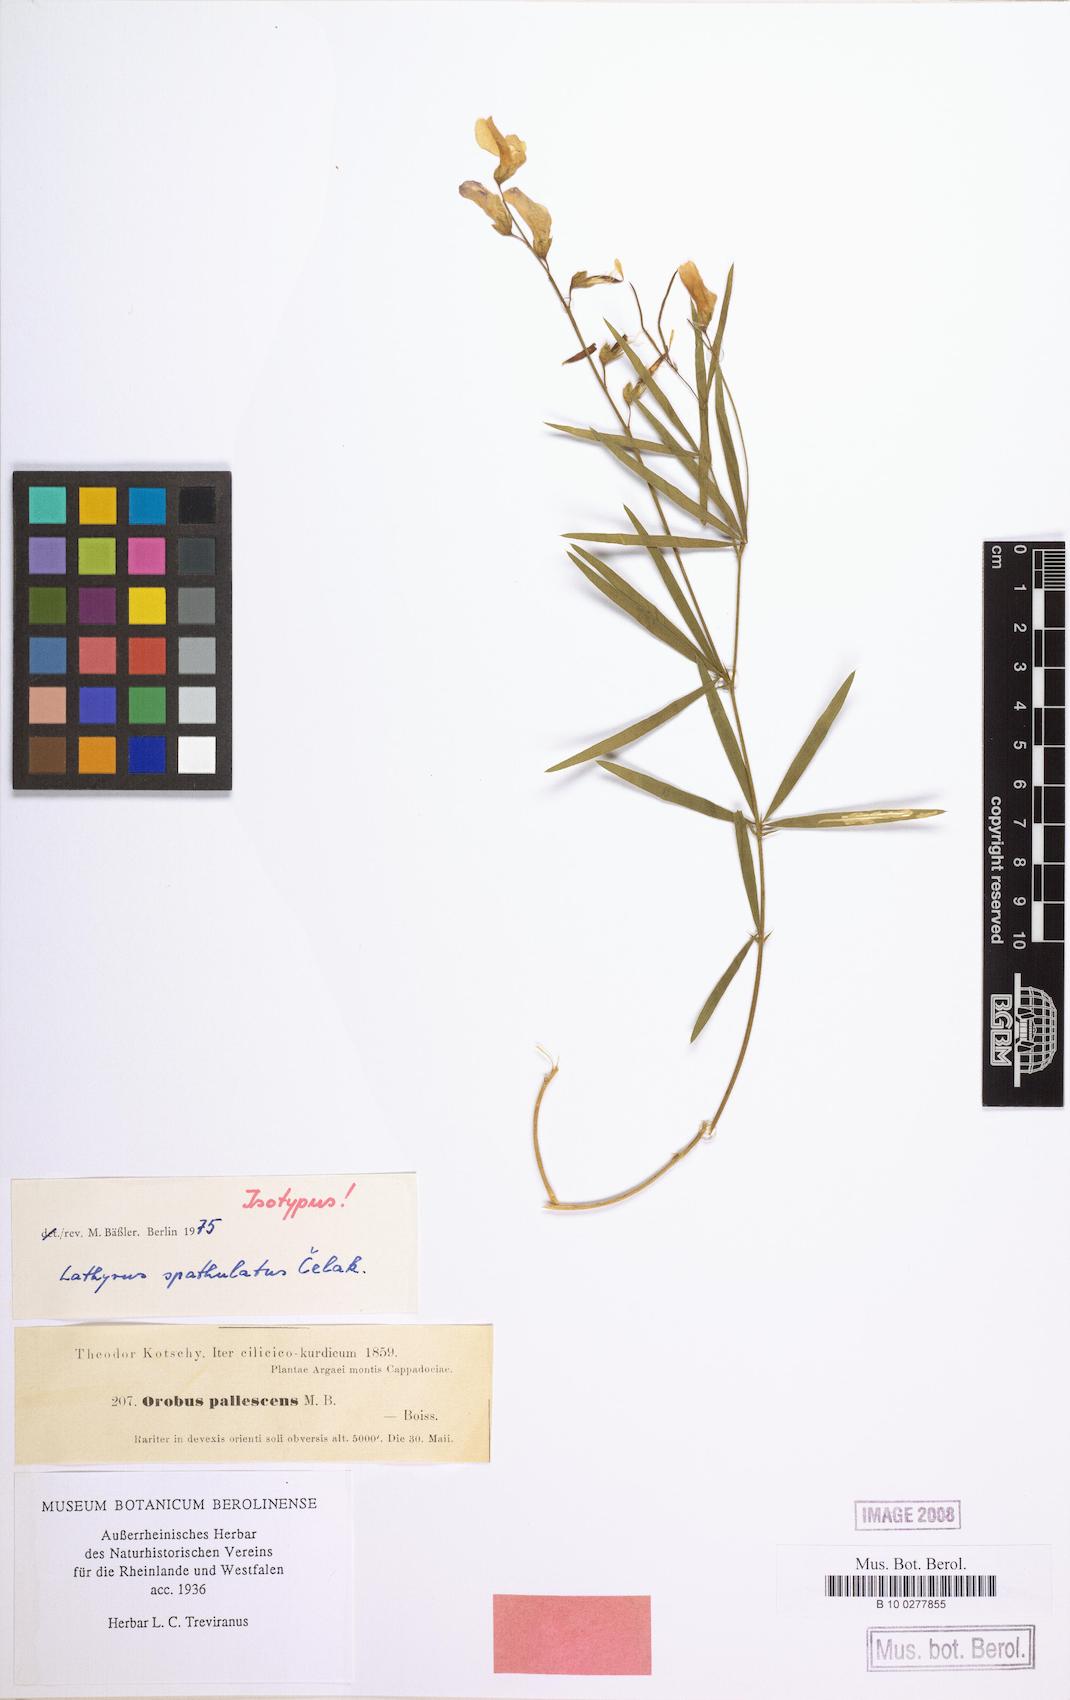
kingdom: Plantae
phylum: Tracheophyta
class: Magnoliopsida
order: Fabales
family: Fabaceae
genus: Lathyrus
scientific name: Lathyrus spathulatus
